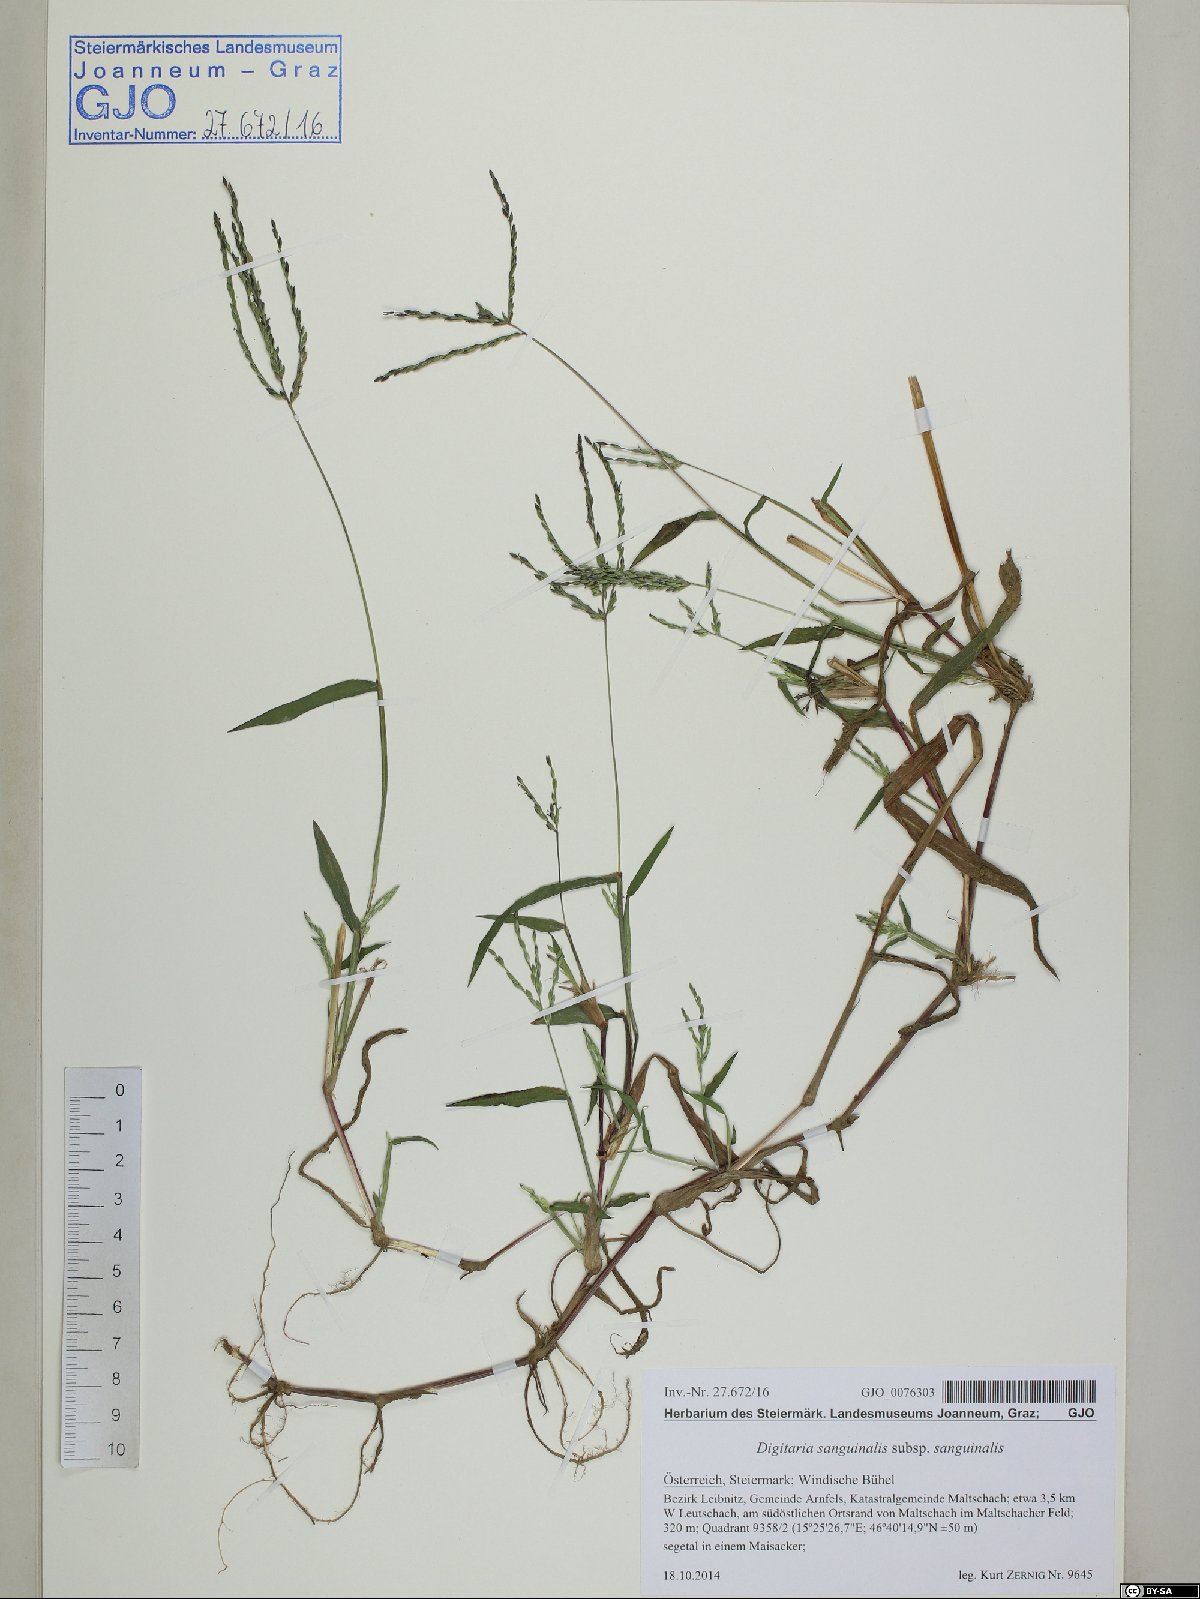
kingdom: Plantae
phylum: Tracheophyta
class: Liliopsida
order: Poales
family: Poaceae
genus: Digitaria
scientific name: Digitaria sanguinalis
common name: Hairy crabgrass
